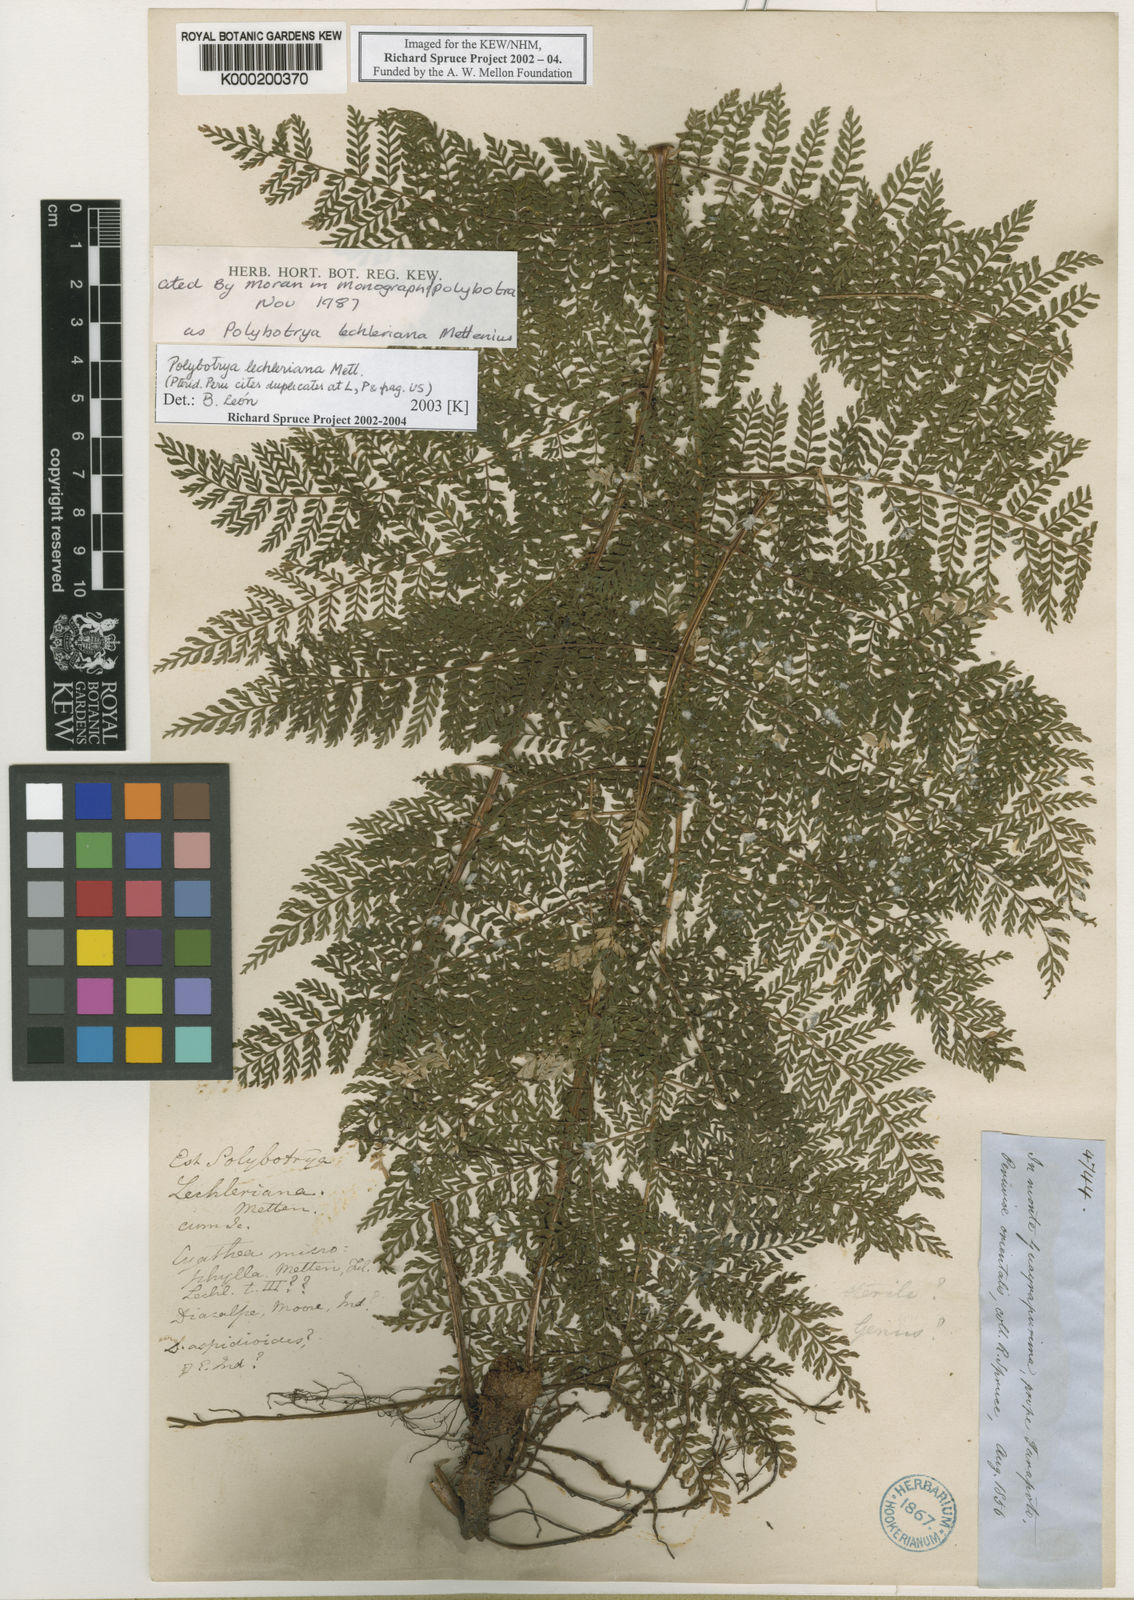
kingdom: Plantae
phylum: Tracheophyta
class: Polypodiopsida
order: Polypodiales
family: Dryopteridaceae
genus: Polybotrya
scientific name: Polybotrya lechleriana
